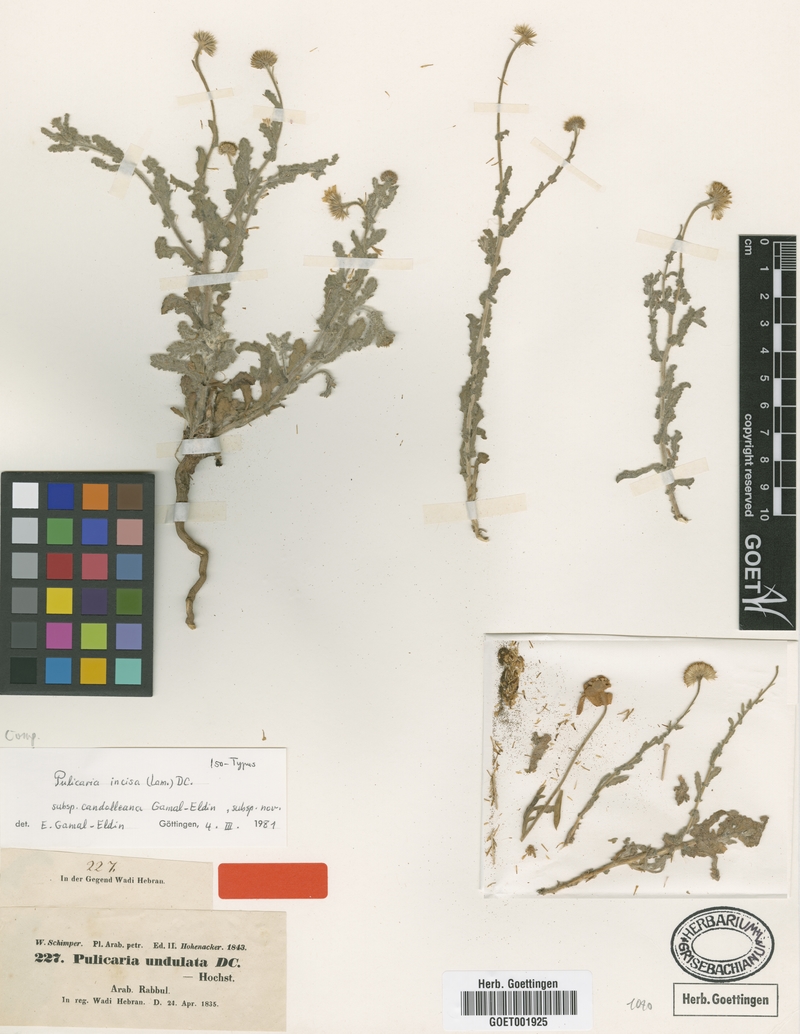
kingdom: Plantae
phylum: Tracheophyta
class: Magnoliopsida
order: Asterales
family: Asteraceae
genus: Pulicaria
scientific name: Pulicaria incisa
